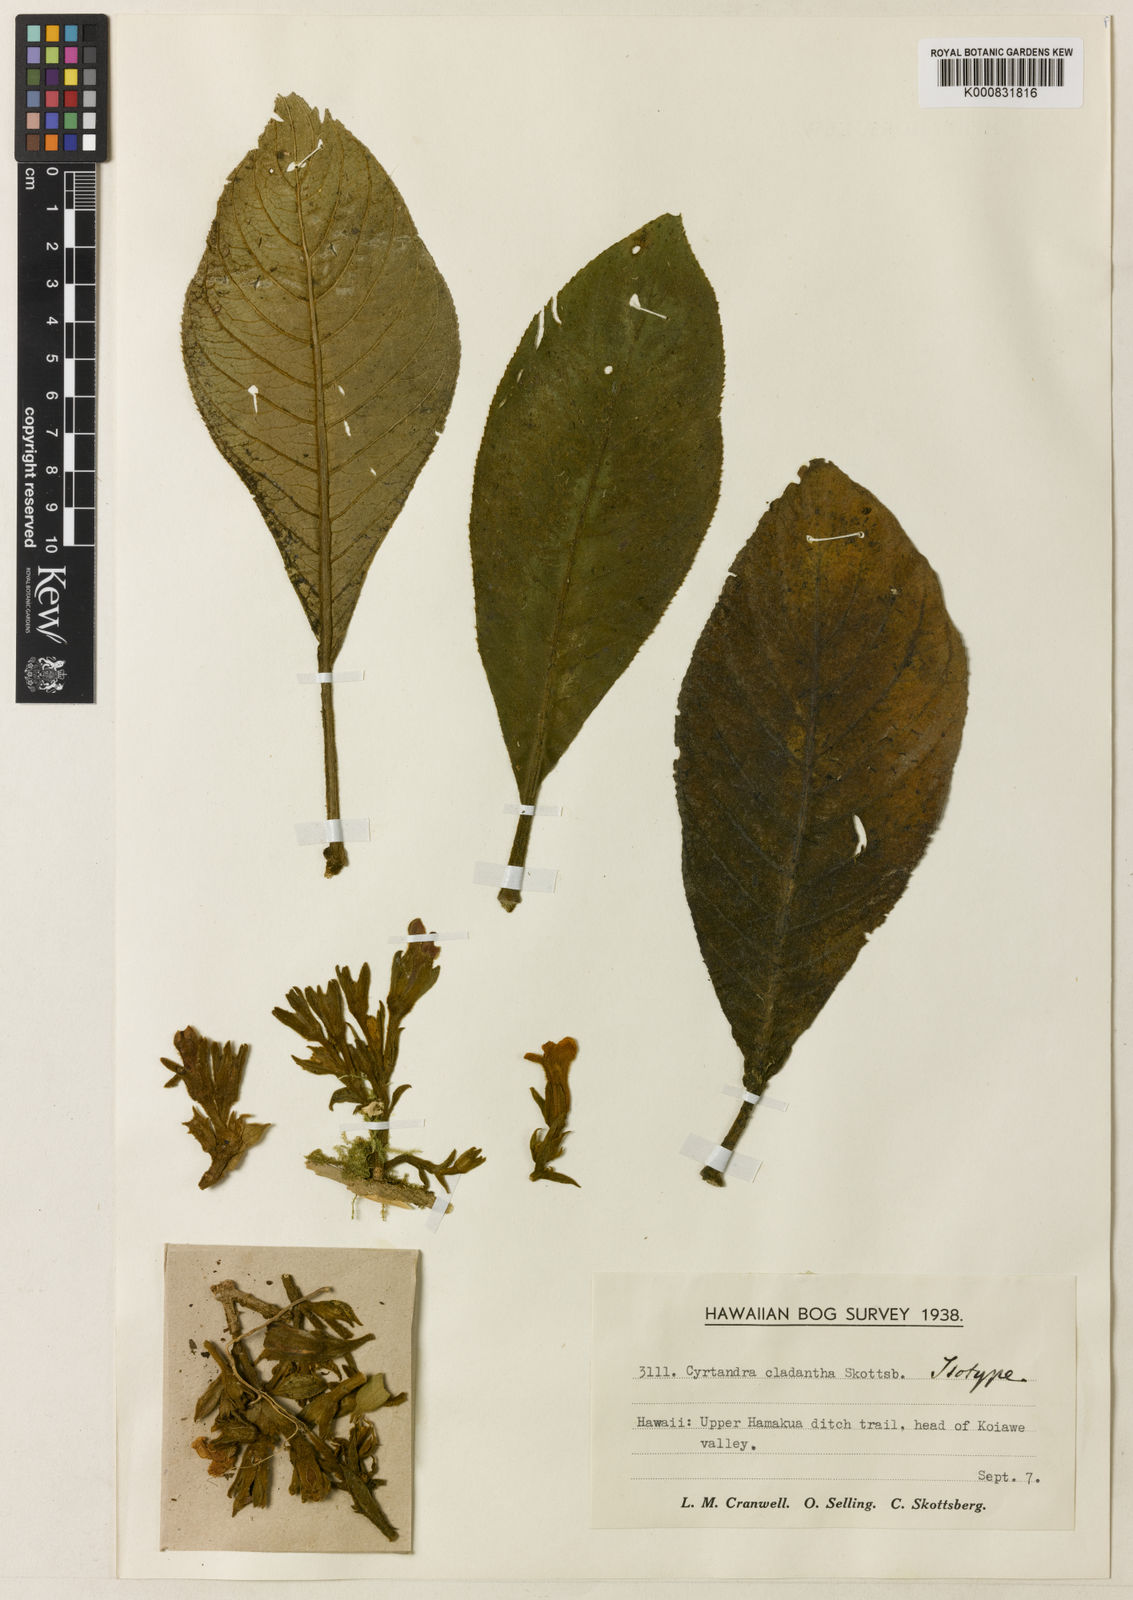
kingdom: Plantae
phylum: Tracheophyta
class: Magnoliopsida
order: Lamiales
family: Gesneriaceae
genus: Cyrtandra
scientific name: Cyrtandra cladantha
